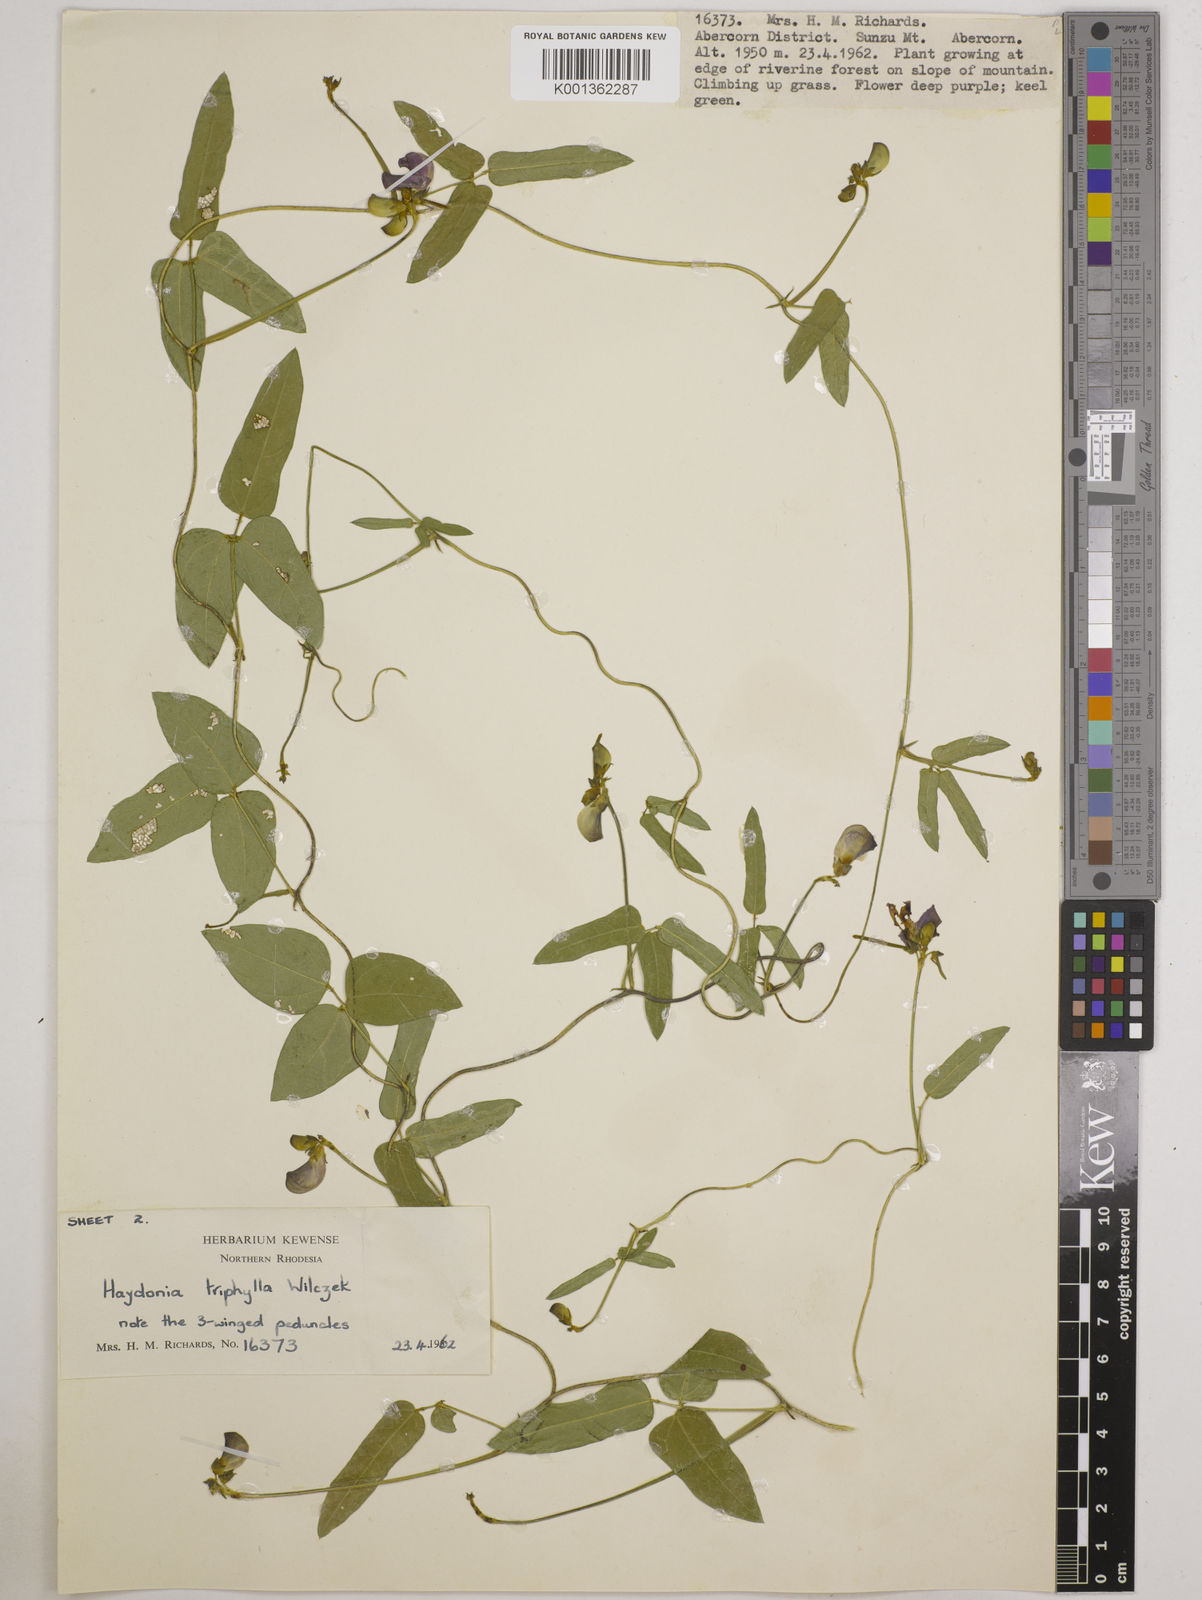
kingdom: Plantae
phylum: Tracheophyta
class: Magnoliopsida
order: Fabales
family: Fabaceae
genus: Vigna
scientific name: Vigna triphylla
